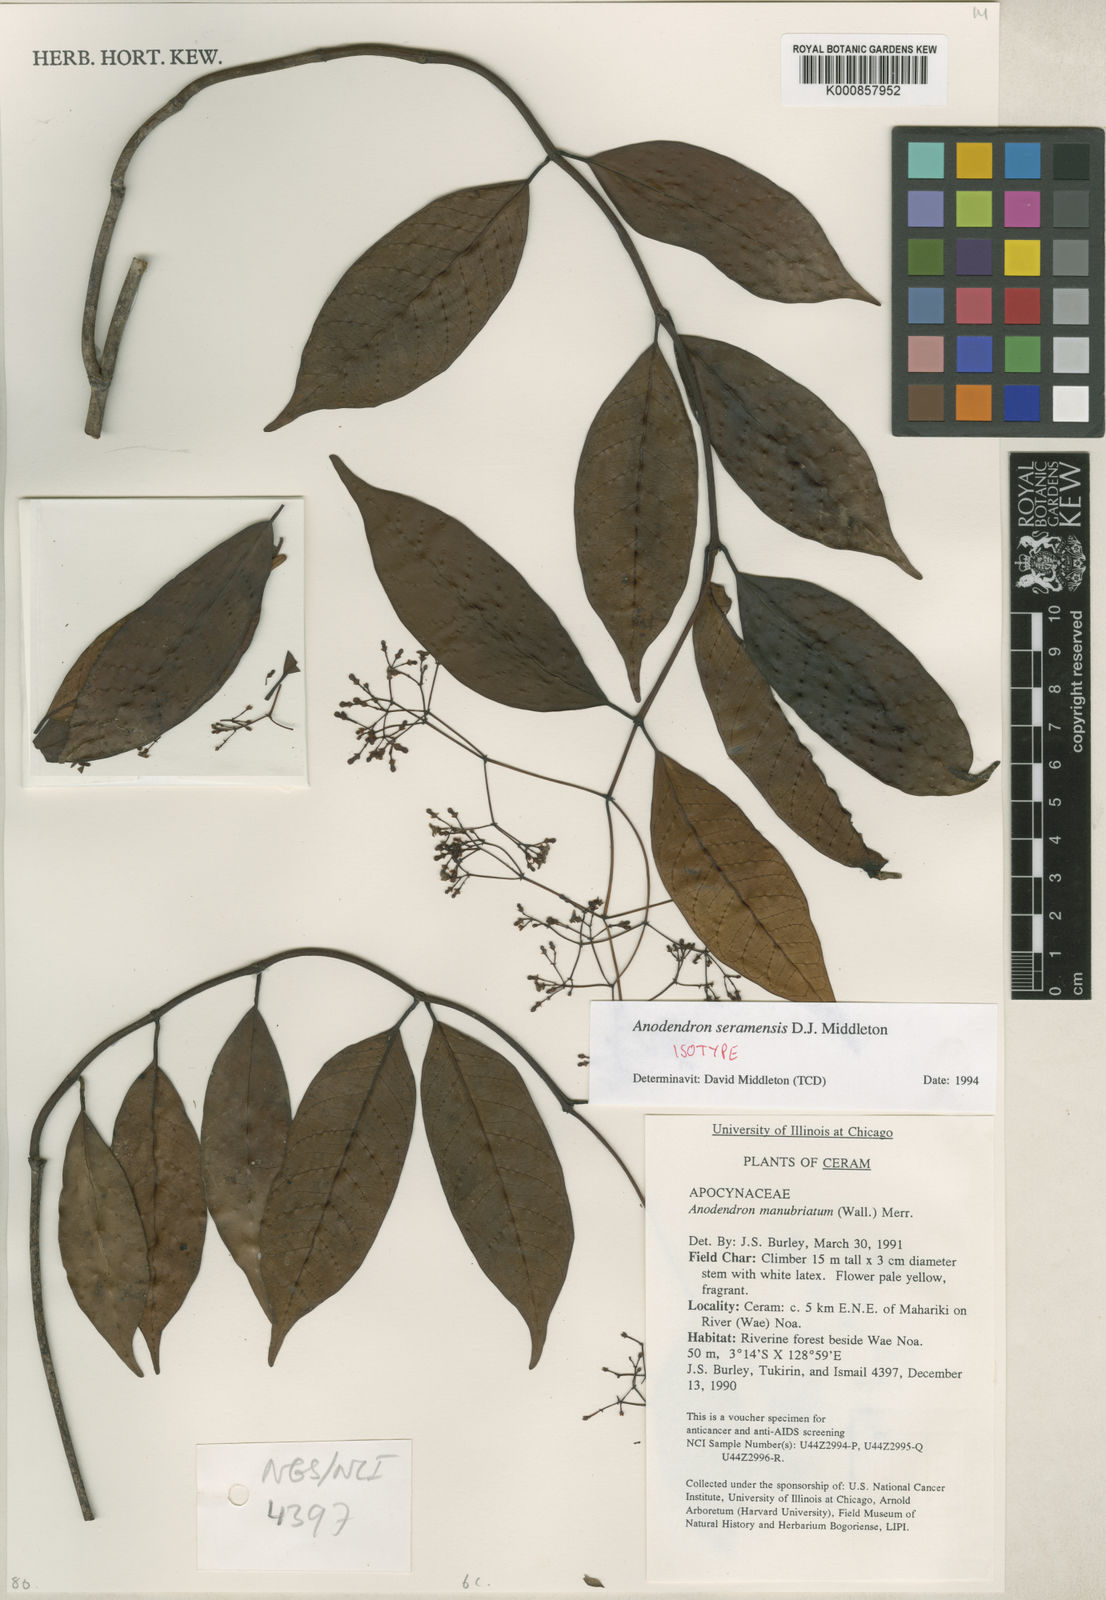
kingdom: Plantae
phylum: Tracheophyta
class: Magnoliopsida
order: Gentianales
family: Apocynaceae
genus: Anodendron
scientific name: Anodendron seramense
